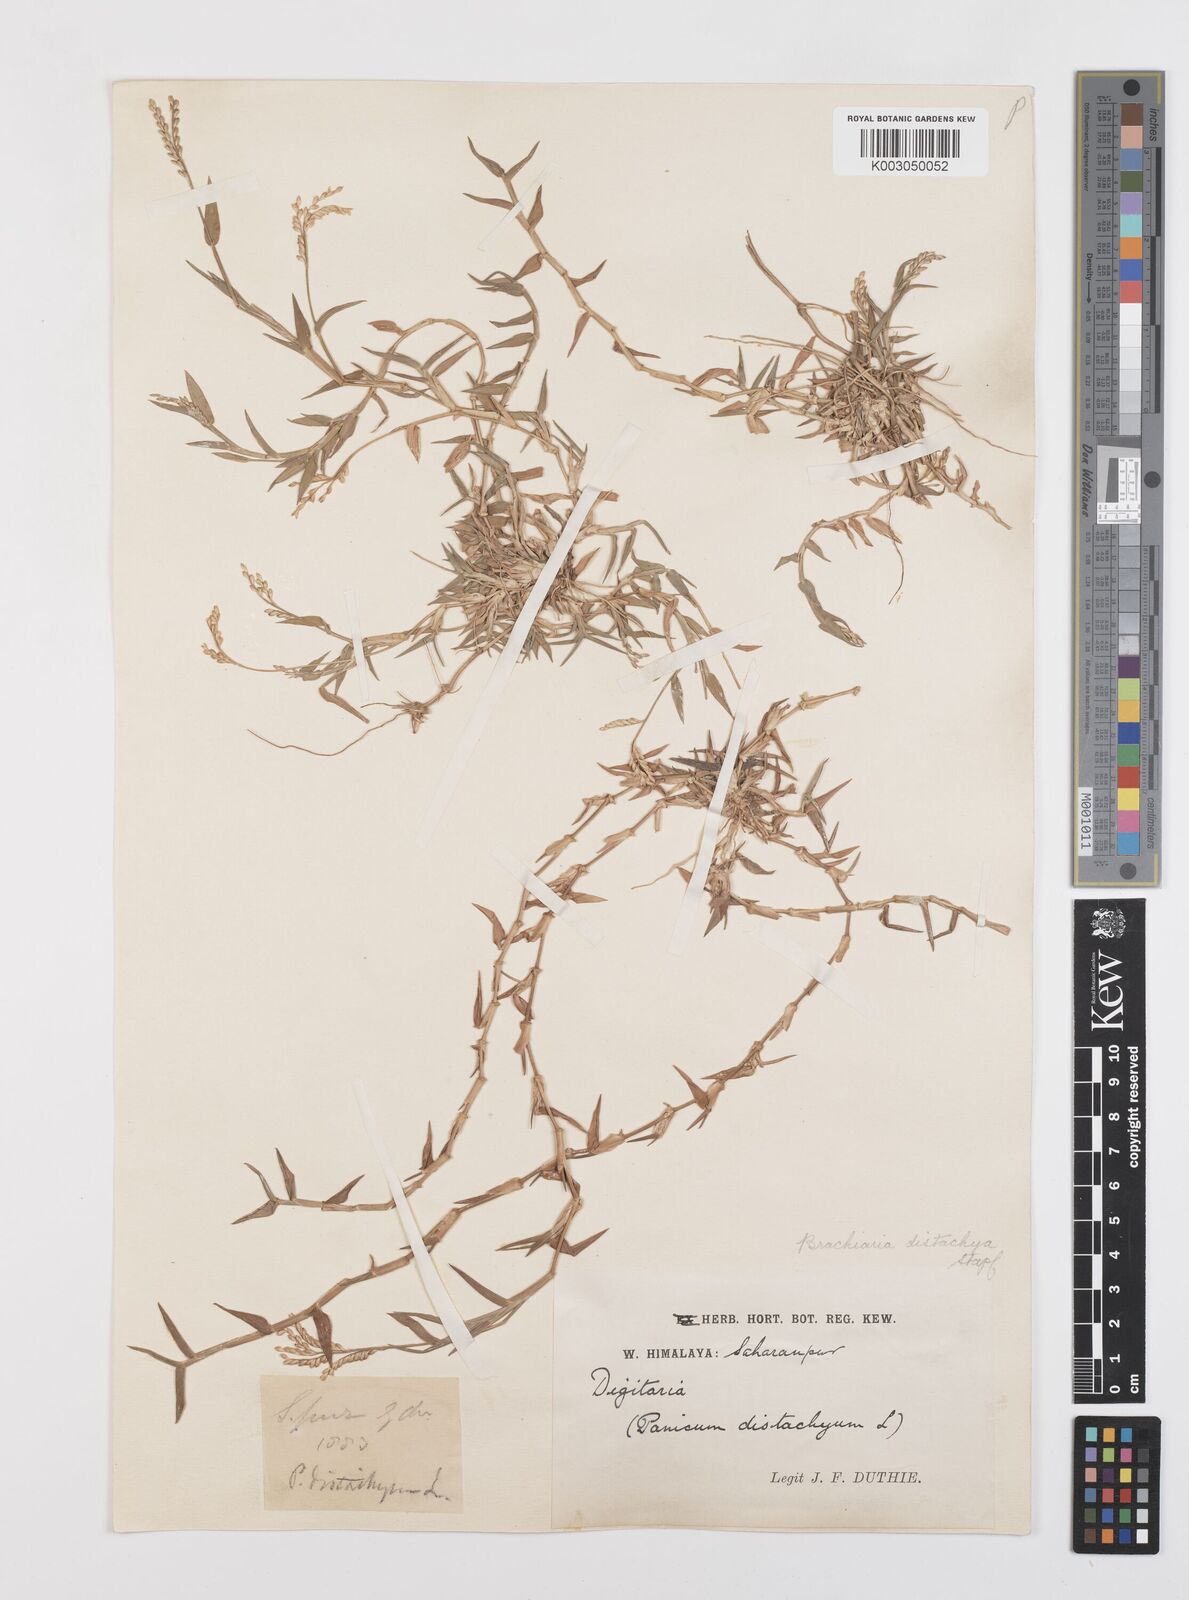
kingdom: Plantae
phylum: Tracheophyta
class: Liliopsida
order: Poales
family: Poaceae
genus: Urochloa
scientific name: Urochloa distachyos
